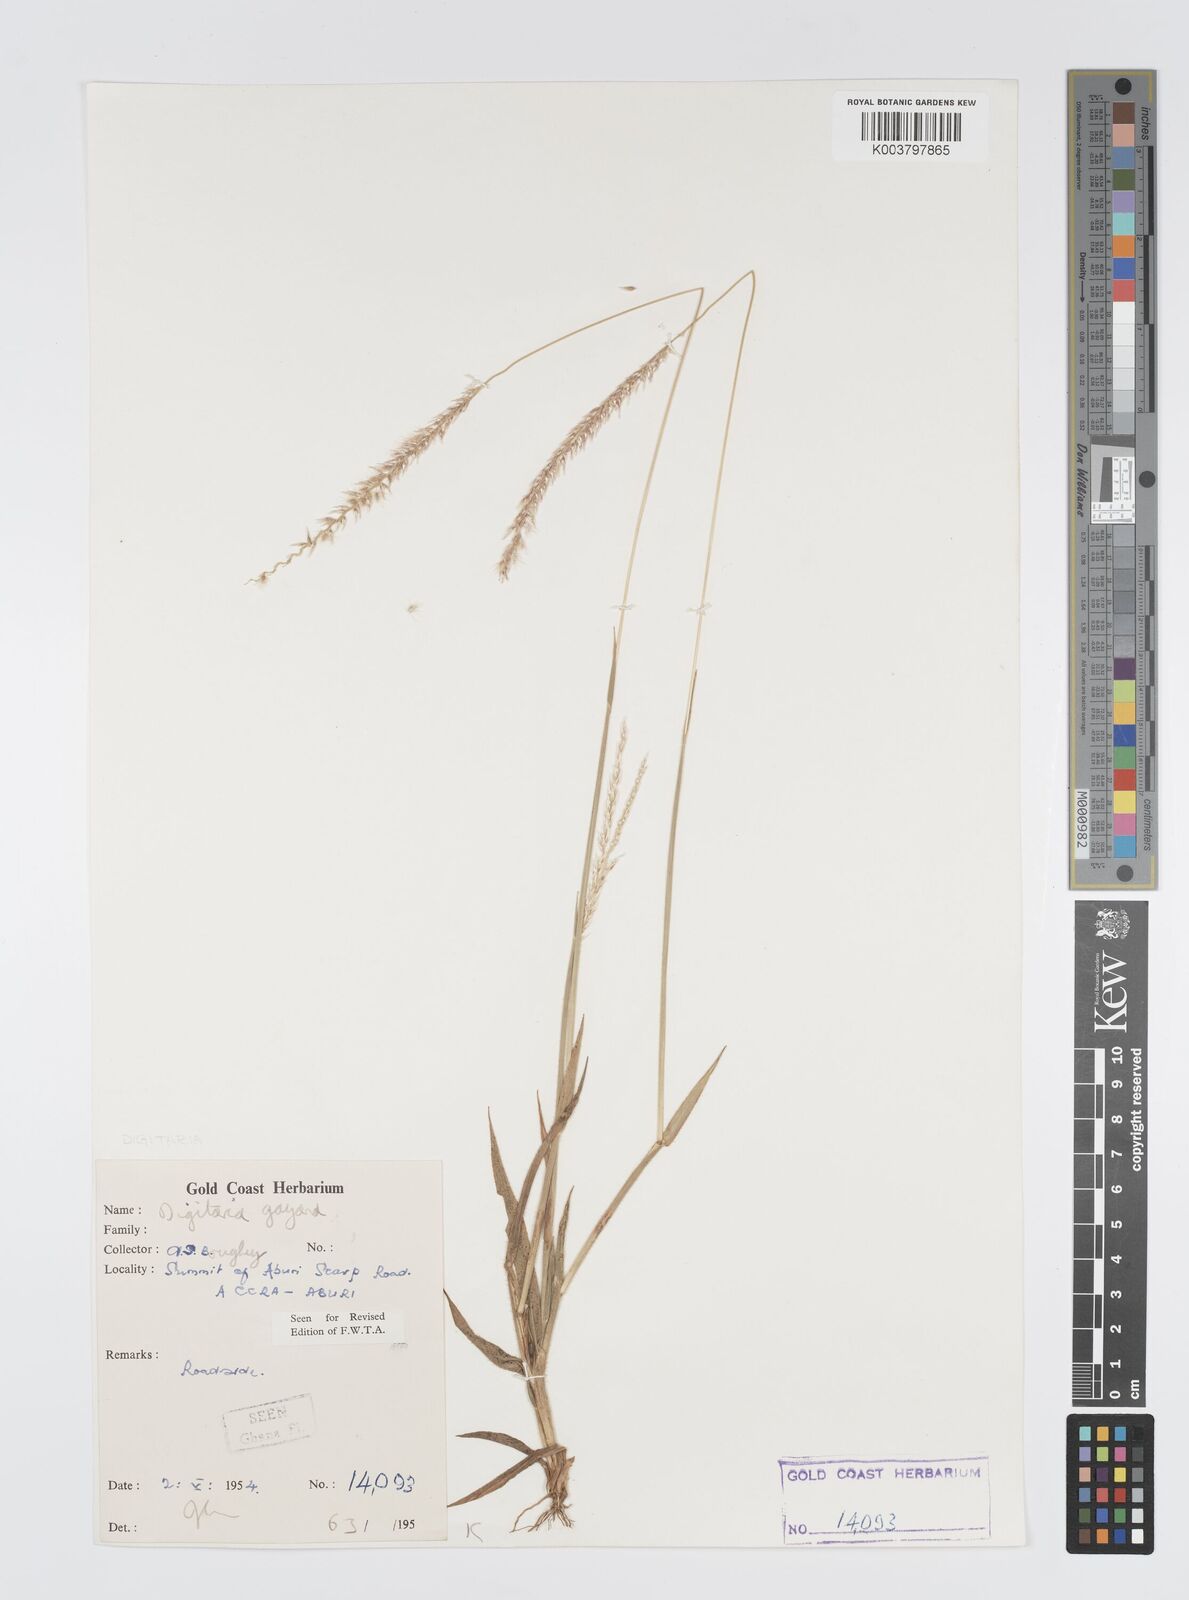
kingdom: Plantae
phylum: Tracheophyta
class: Liliopsida
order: Poales
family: Poaceae
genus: Digitaria
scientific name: Digitaria gayana
